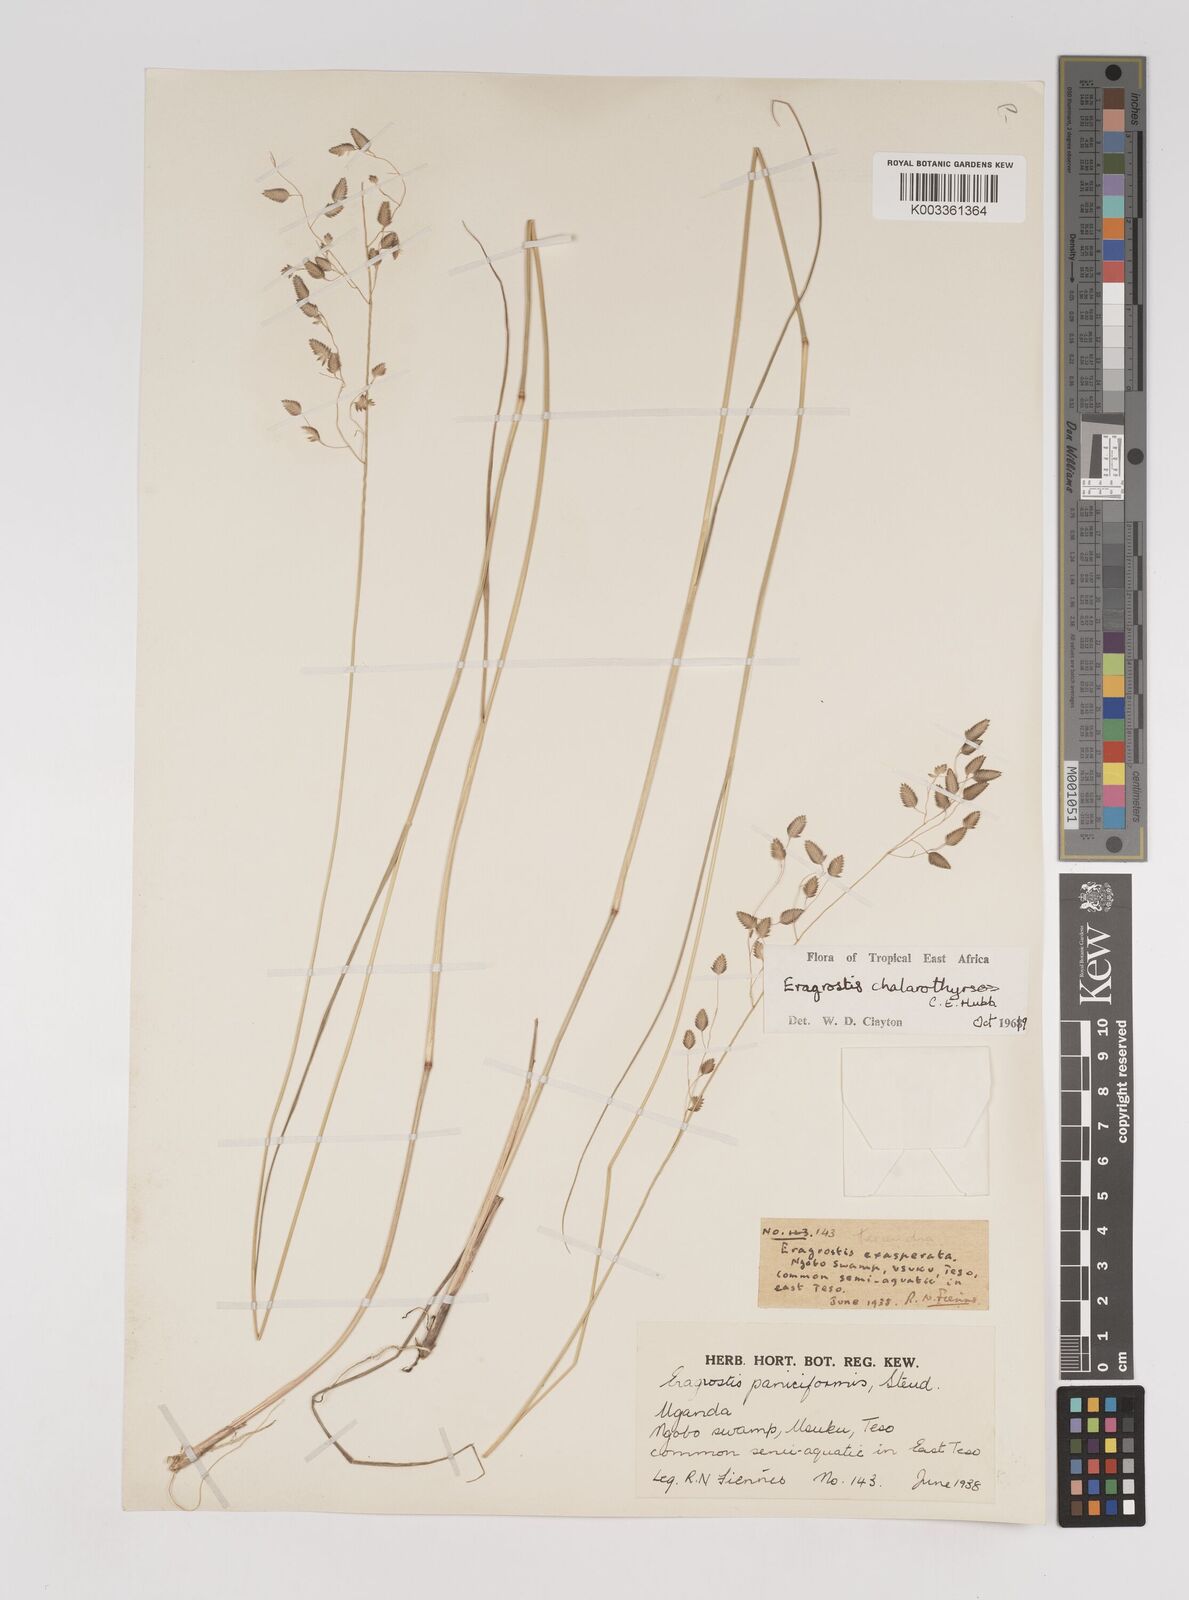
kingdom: Plantae
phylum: Tracheophyta
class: Liliopsida
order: Poales
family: Poaceae
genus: Eragrostis
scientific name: Eragrostis chalarothyrsos
